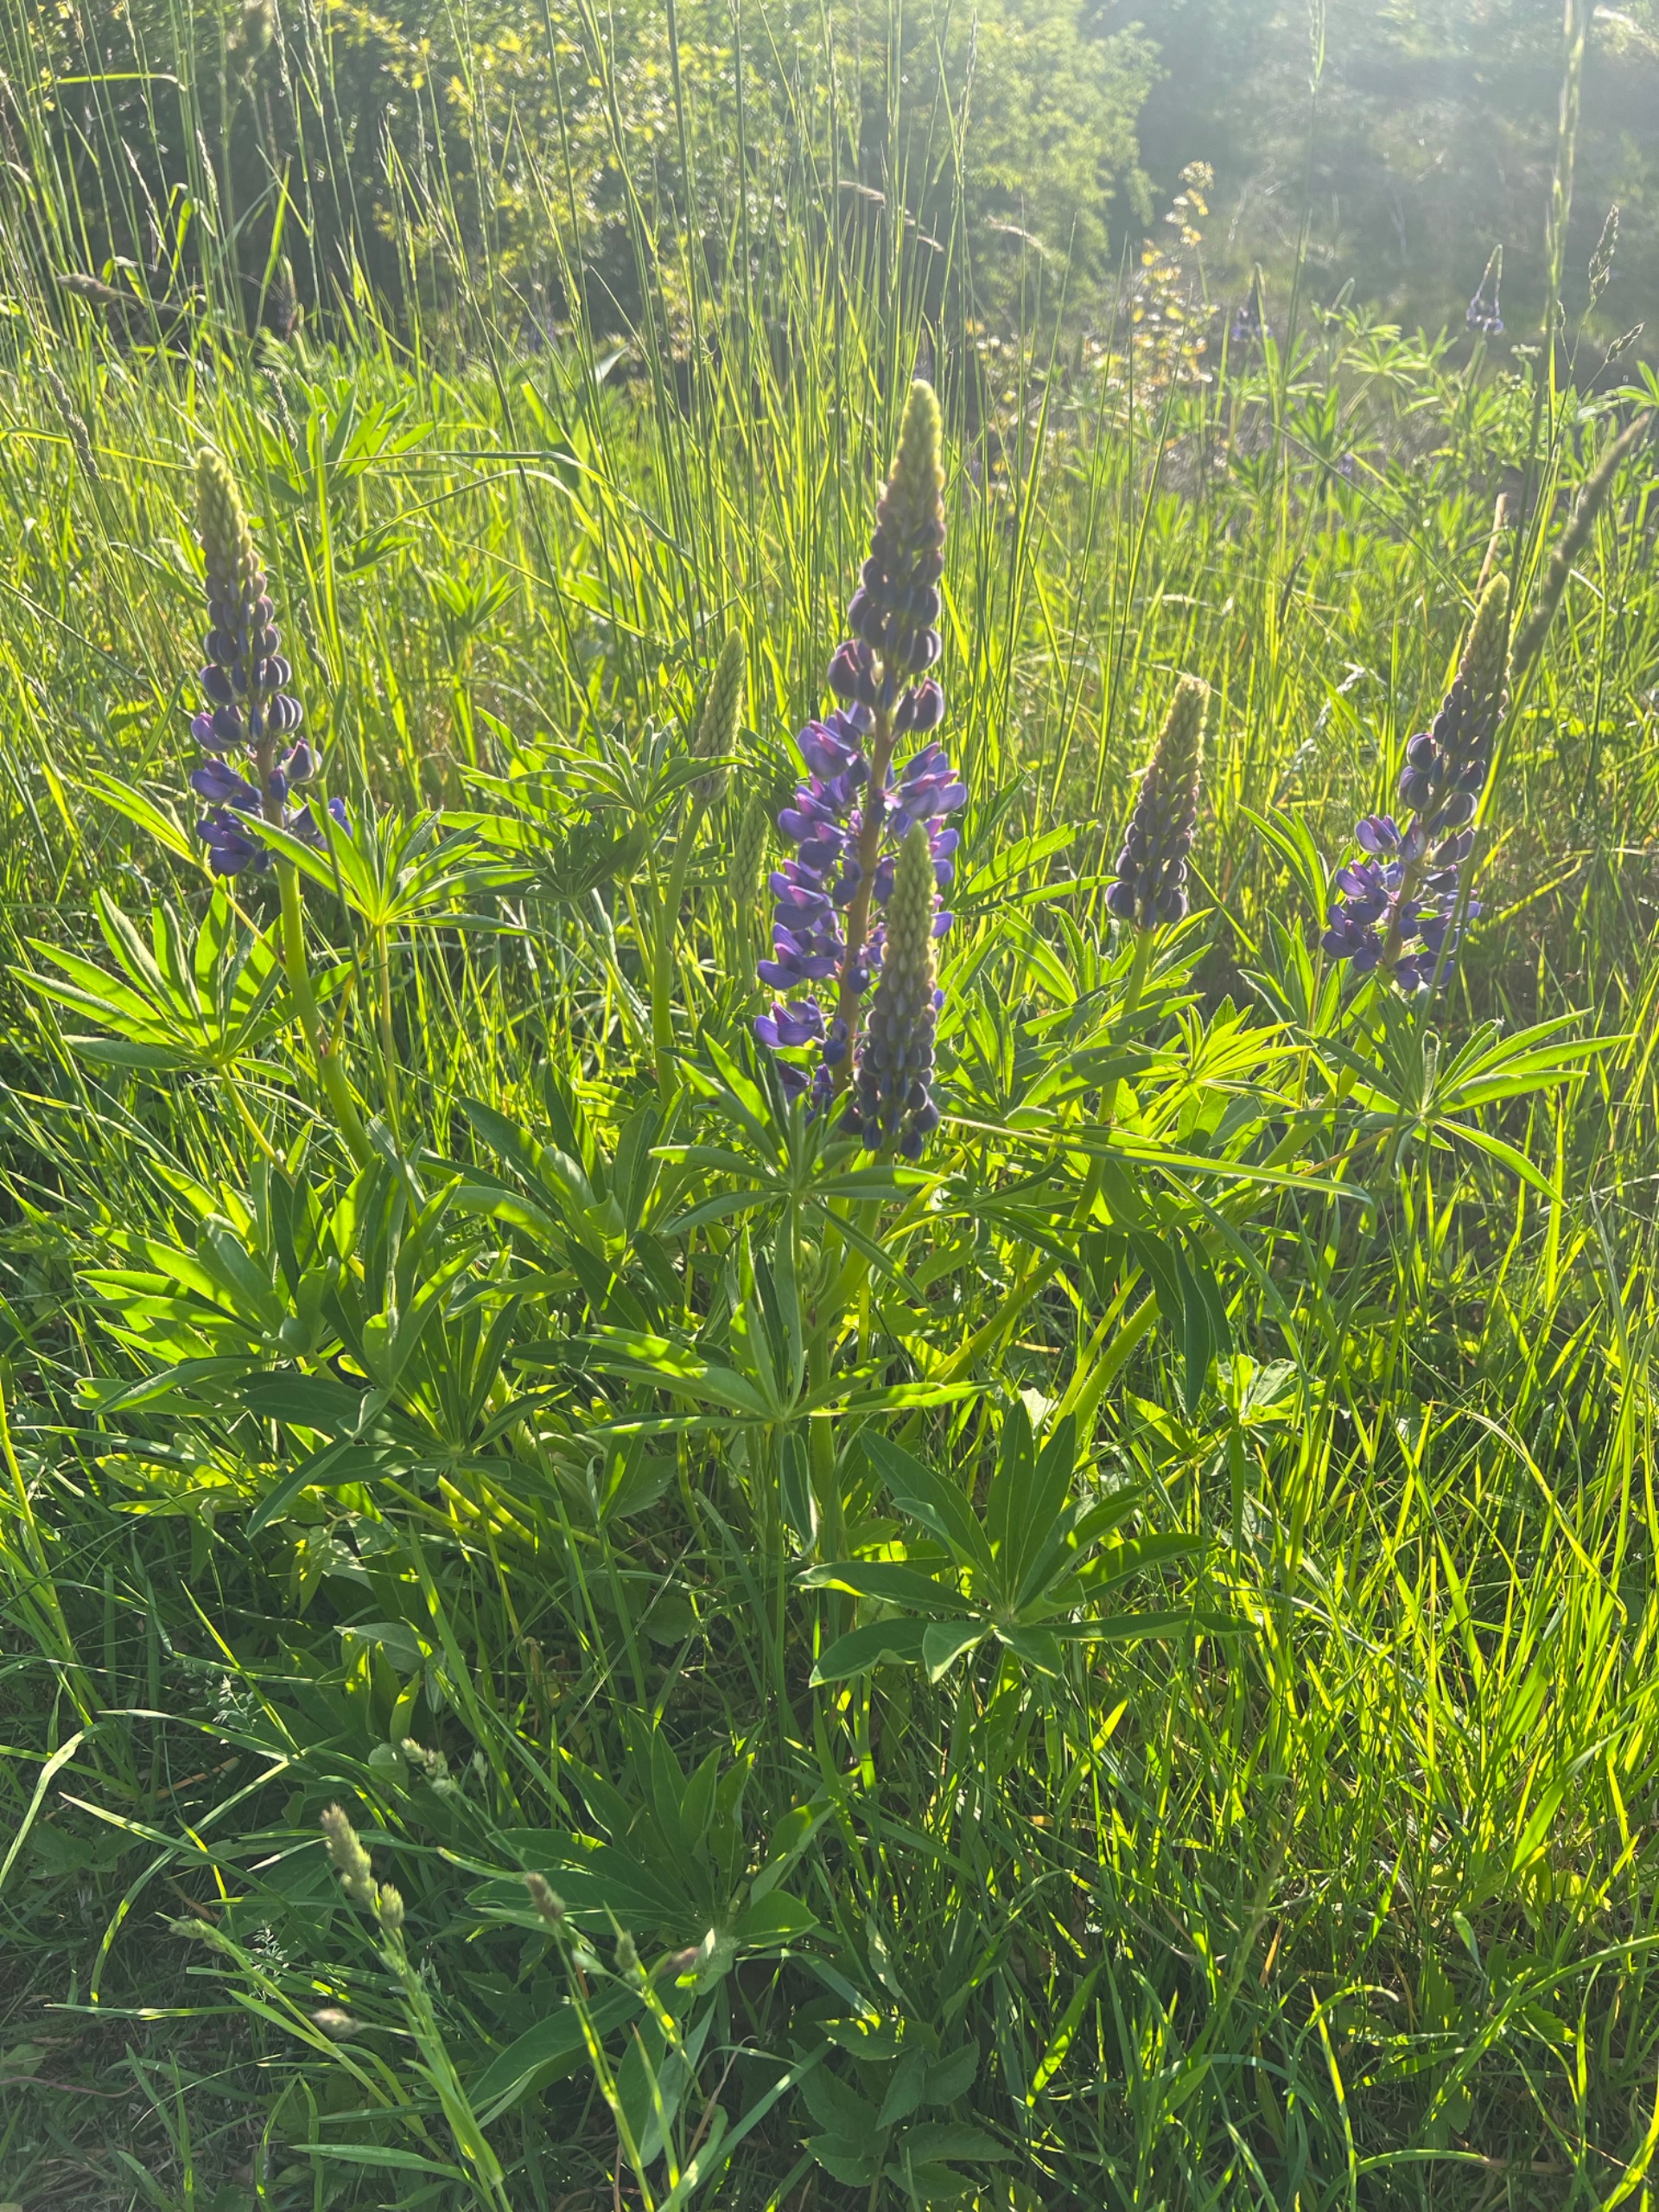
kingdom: Plantae
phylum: Tracheophyta
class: Magnoliopsida
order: Fabales
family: Fabaceae
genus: Lupinus
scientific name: Lupinus polyphyllus
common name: Mangebladet lupin
